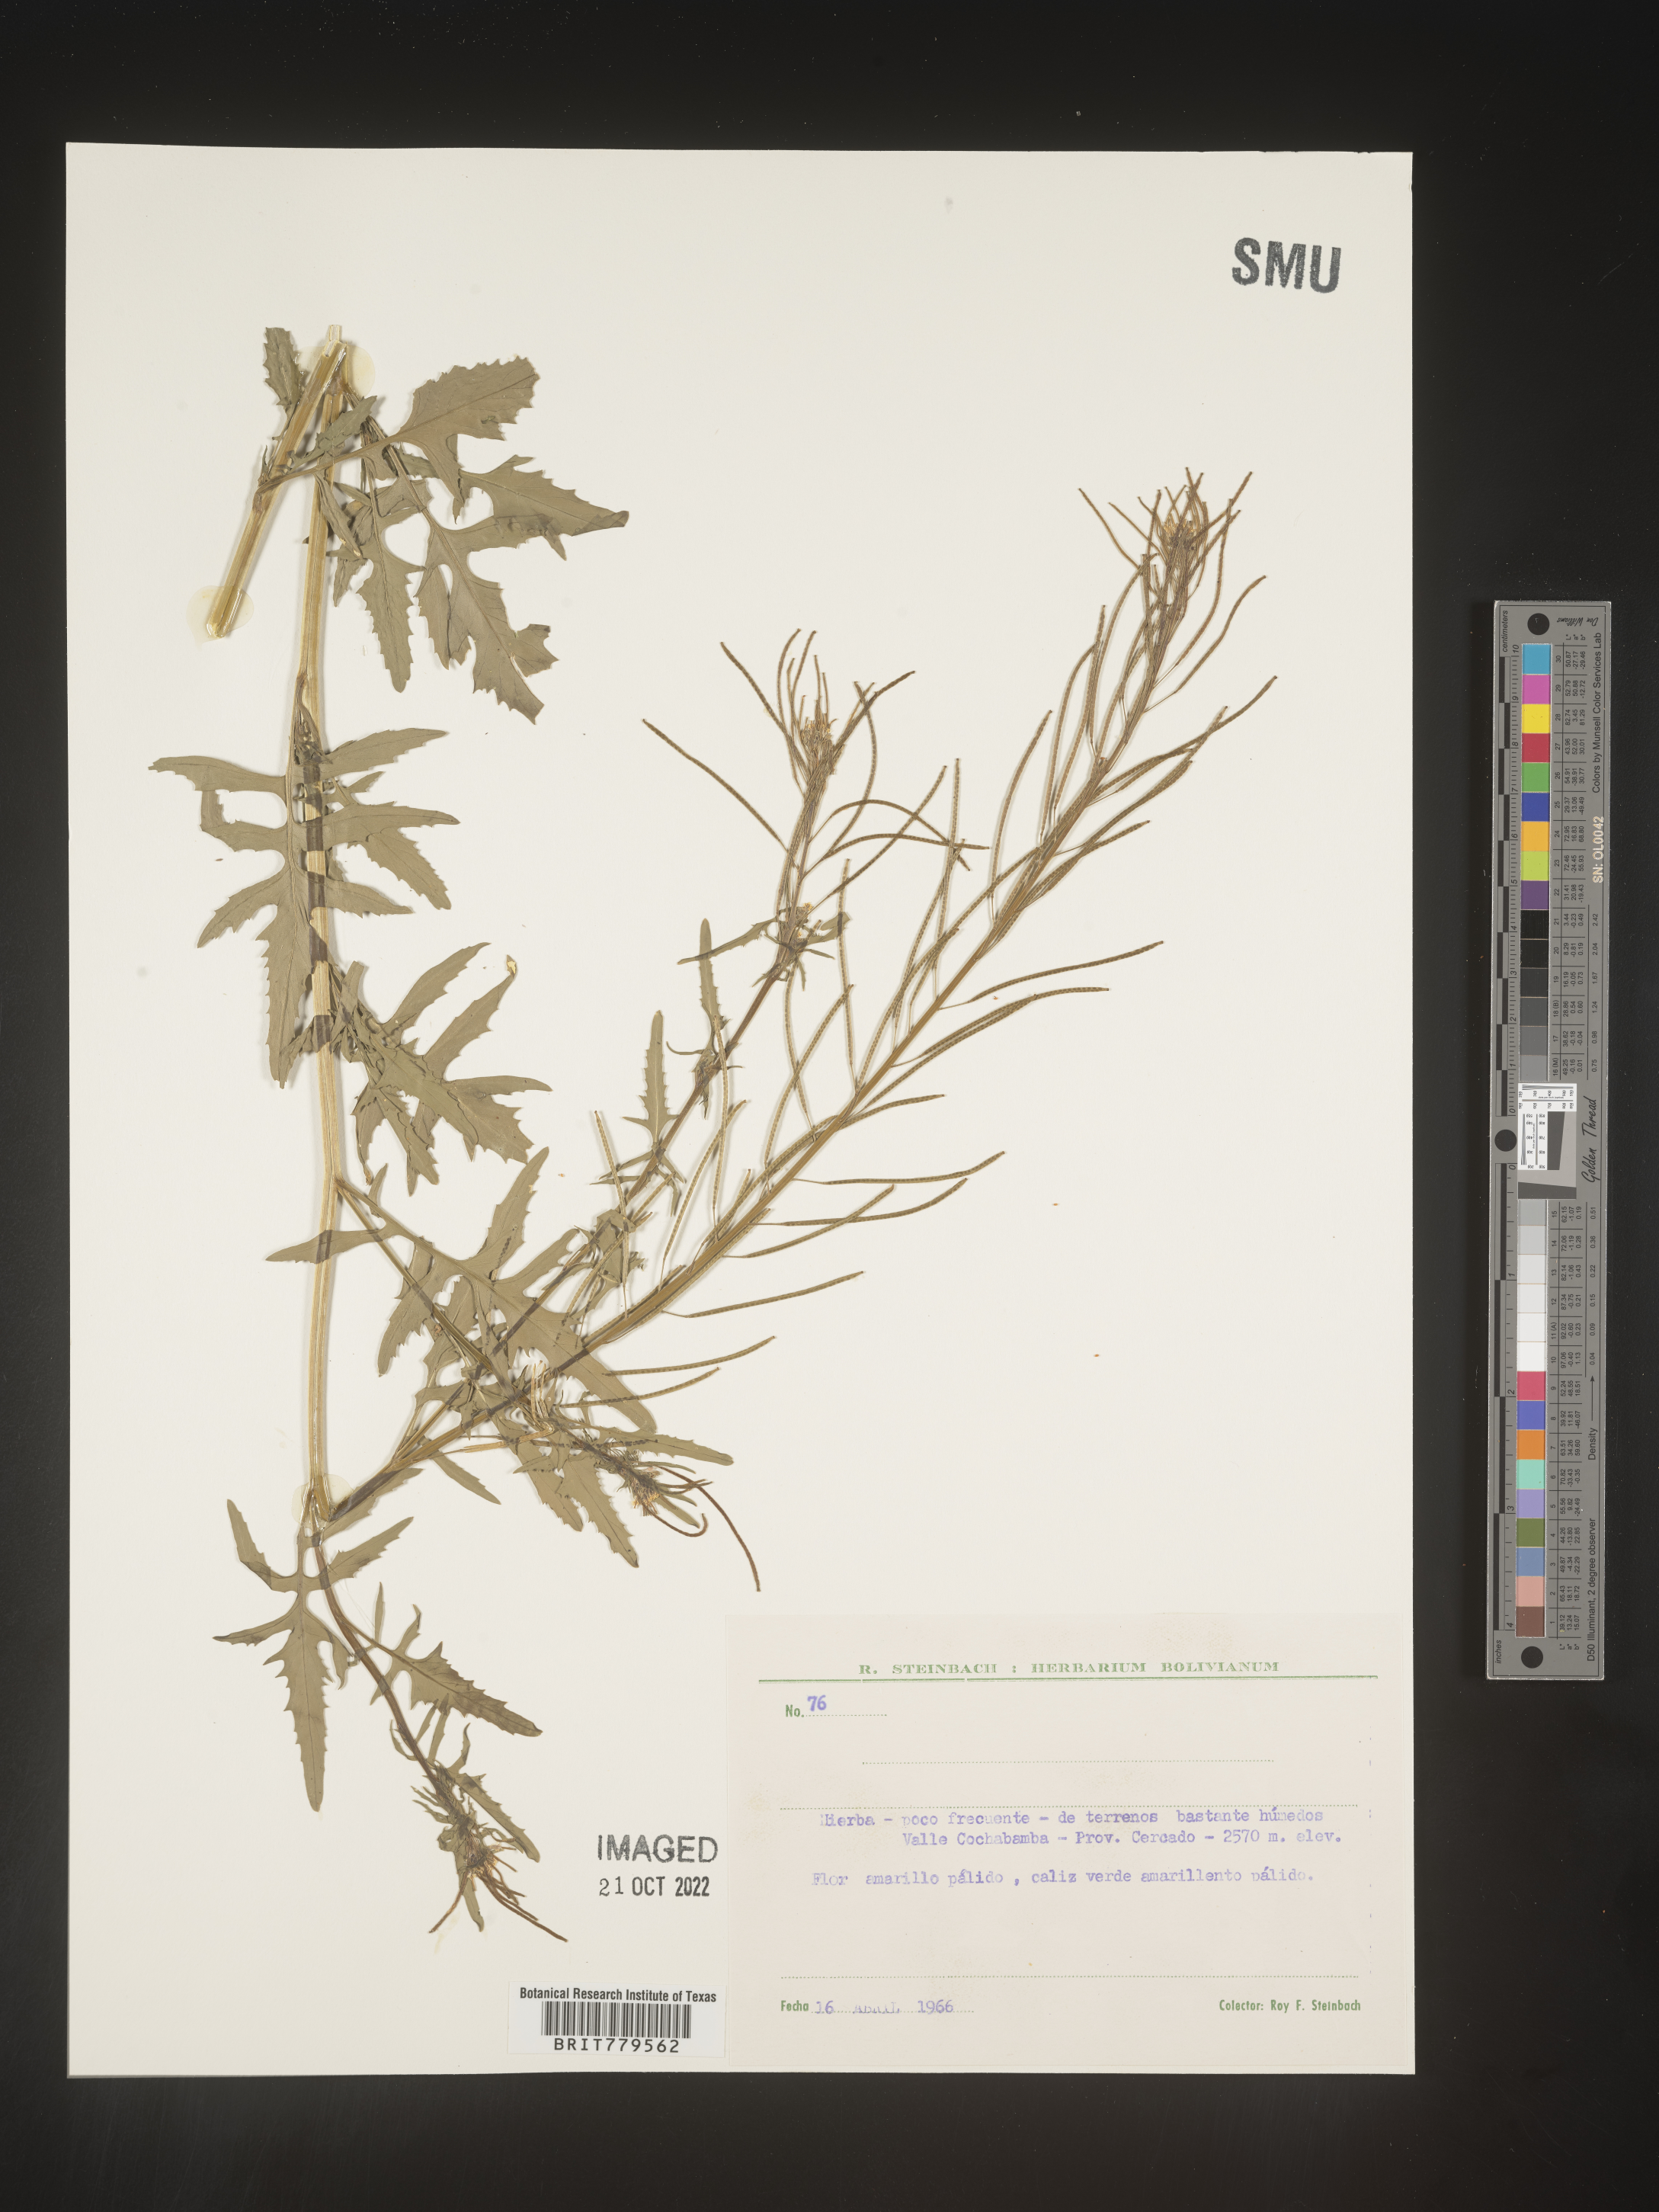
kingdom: Plantae
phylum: Tracheophyta
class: Magnoliopsida
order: Brassicales
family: Brassicaceae
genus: Sisymbrium
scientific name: Sisymbrium
